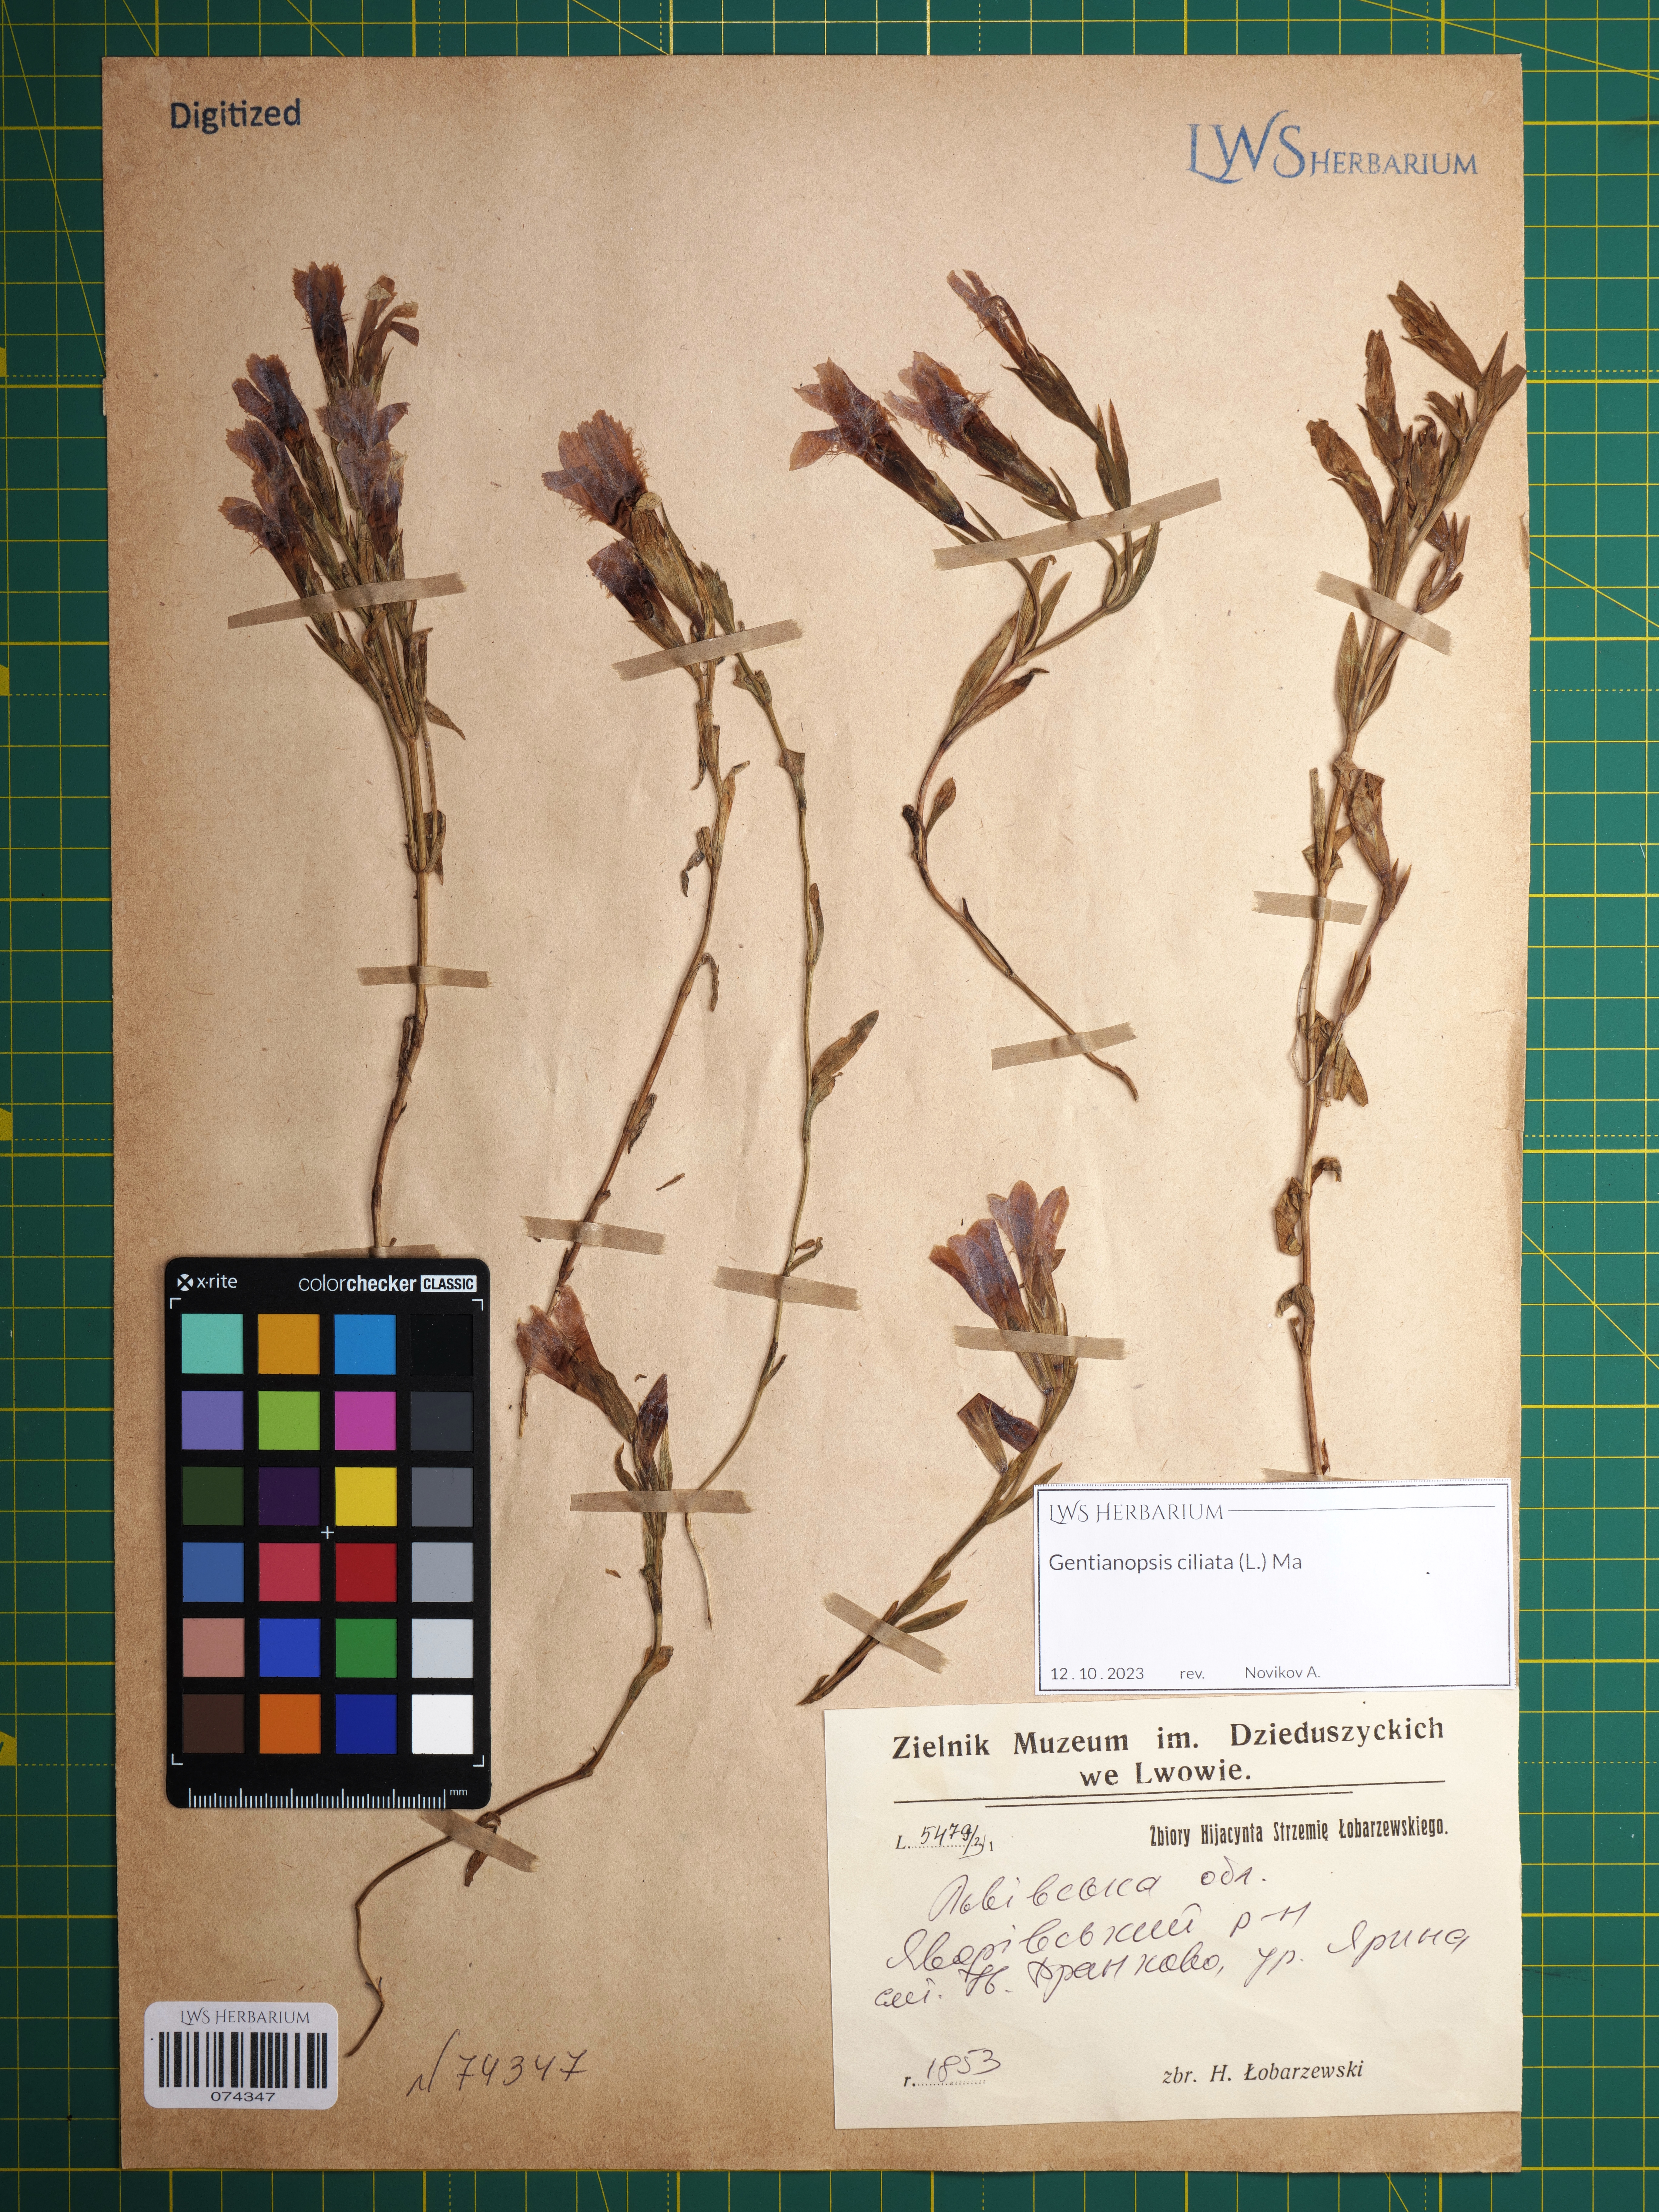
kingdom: Plantae
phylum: Tracheophyta
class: Magnoliopsida
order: Gentianales
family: Gentianaceae
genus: Gentianopsis
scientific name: Gentianopsis ciliata
